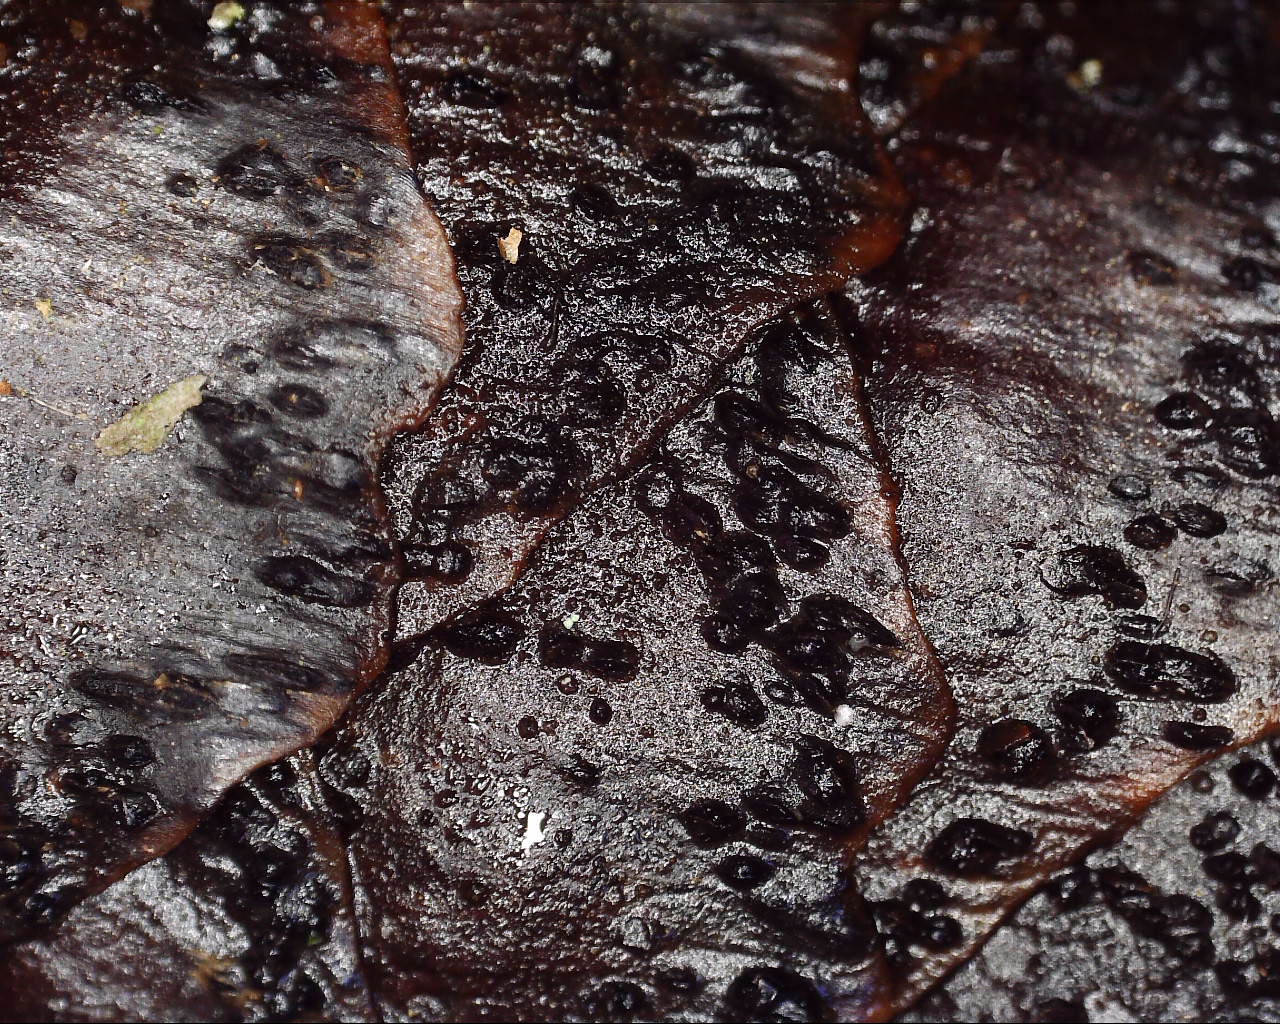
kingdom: Fungi
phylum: Ascomycota
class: Dothideomycetes
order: Botryosphaeriales
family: Botryosphaeriaceae
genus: Sphaeropsis
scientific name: Sphaeropsis sapinea
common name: Sphaeropsis blight
